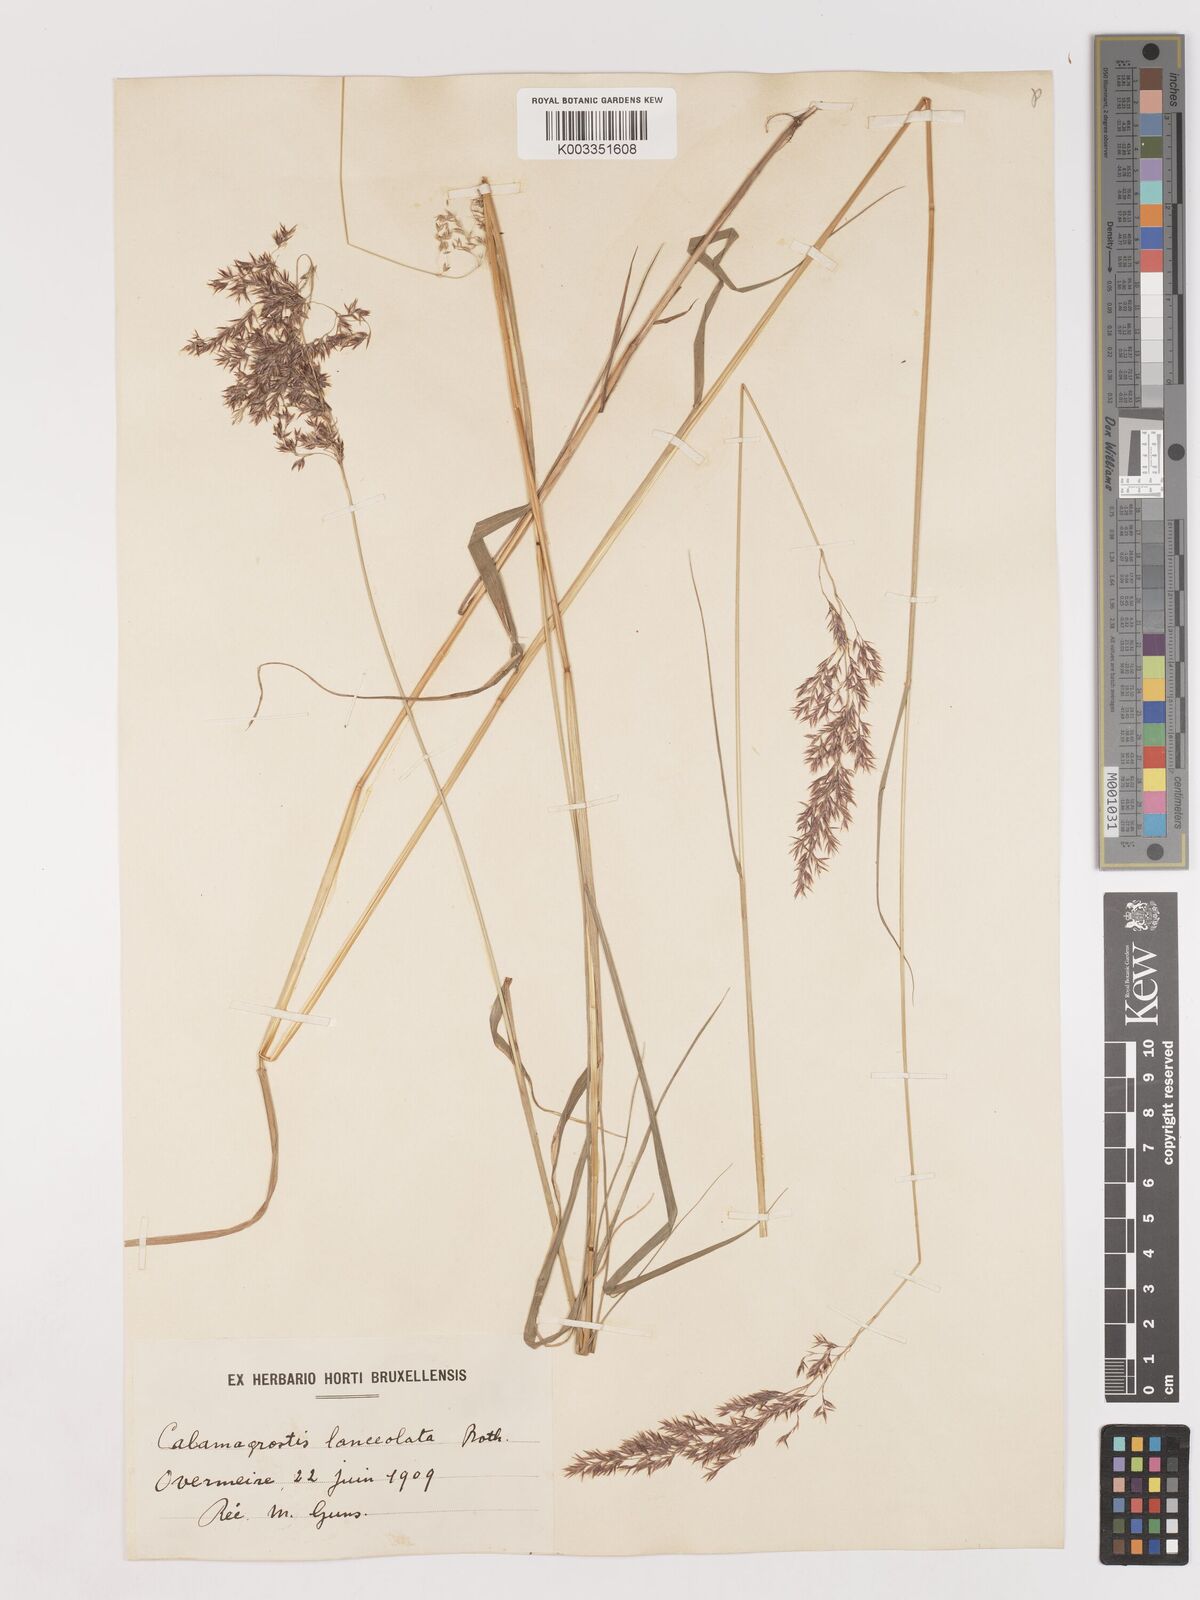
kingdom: Plantae
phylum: Tracheophyta
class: Liliopsida
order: Poales
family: Poaceae
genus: Calamagrostis
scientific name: Calamagrostis canescens
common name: Purple small-reed
